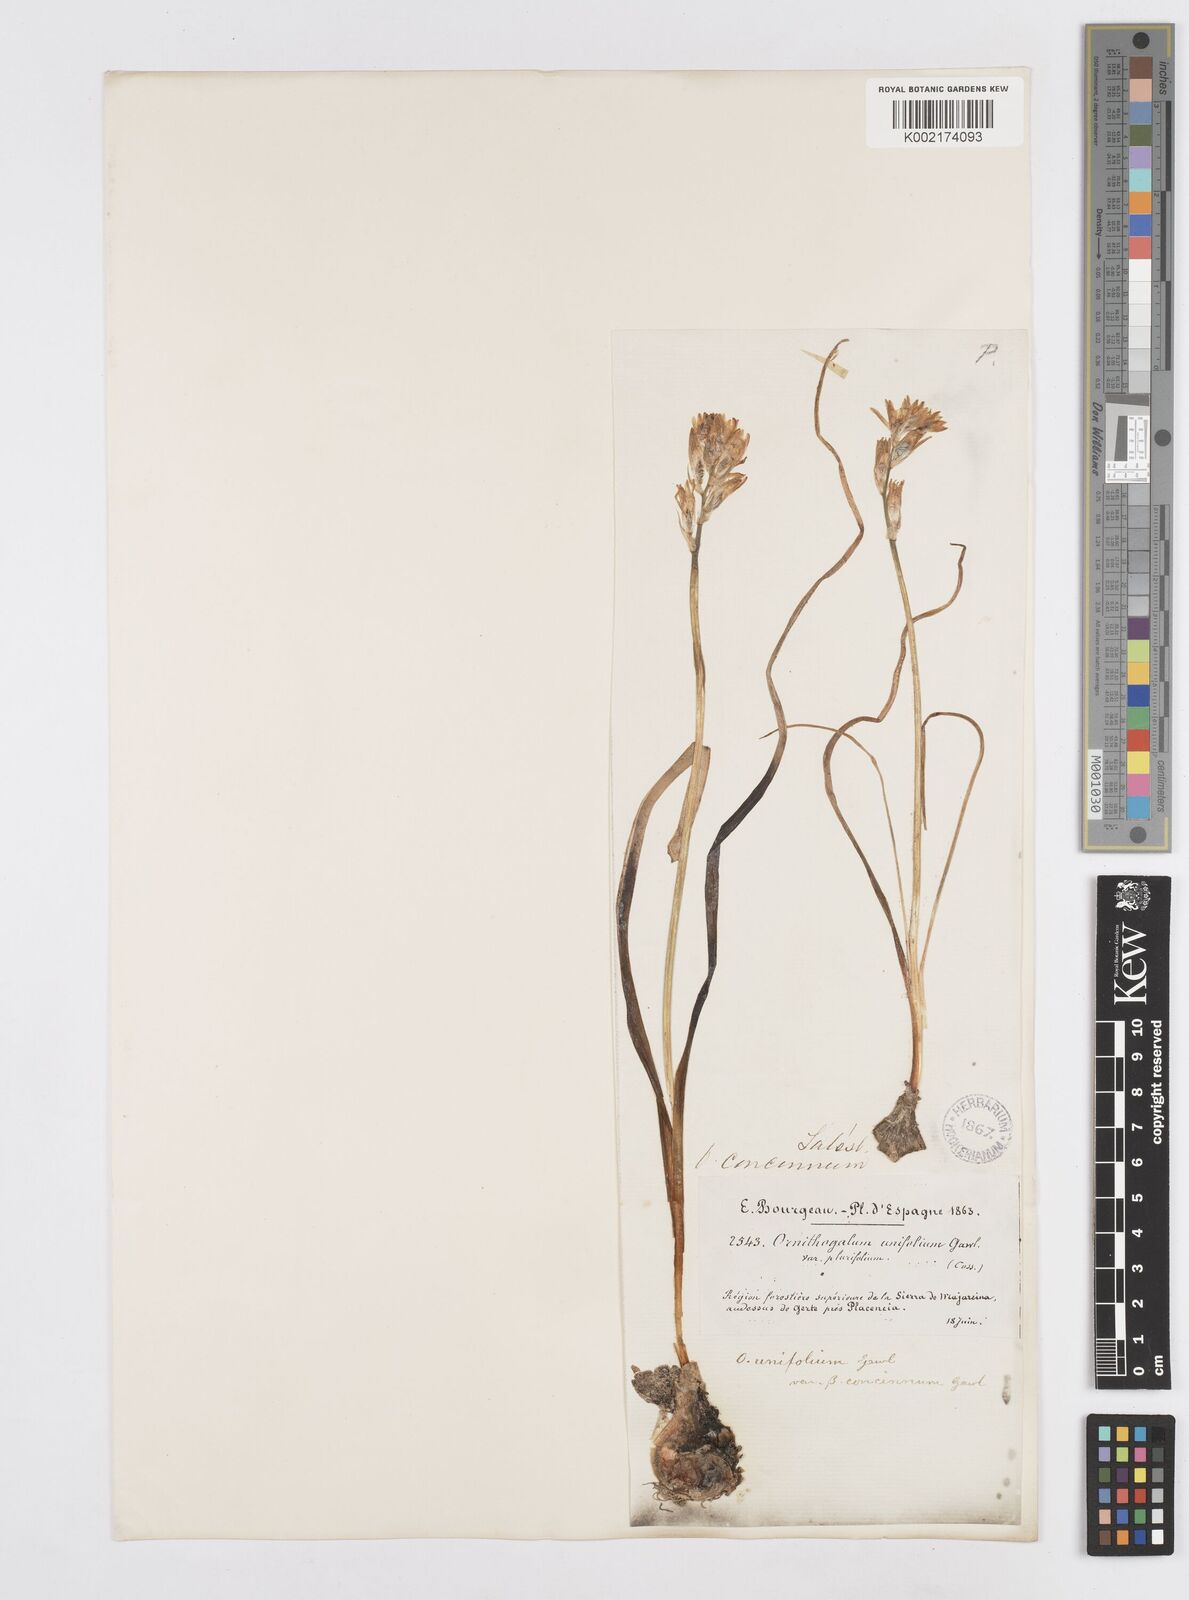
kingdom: Plantae
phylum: Tracheophyta
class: Liliopsida
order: Asparagales
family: Asparagaceae
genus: Ornithogalum
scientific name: Ornithogalum concinnum
